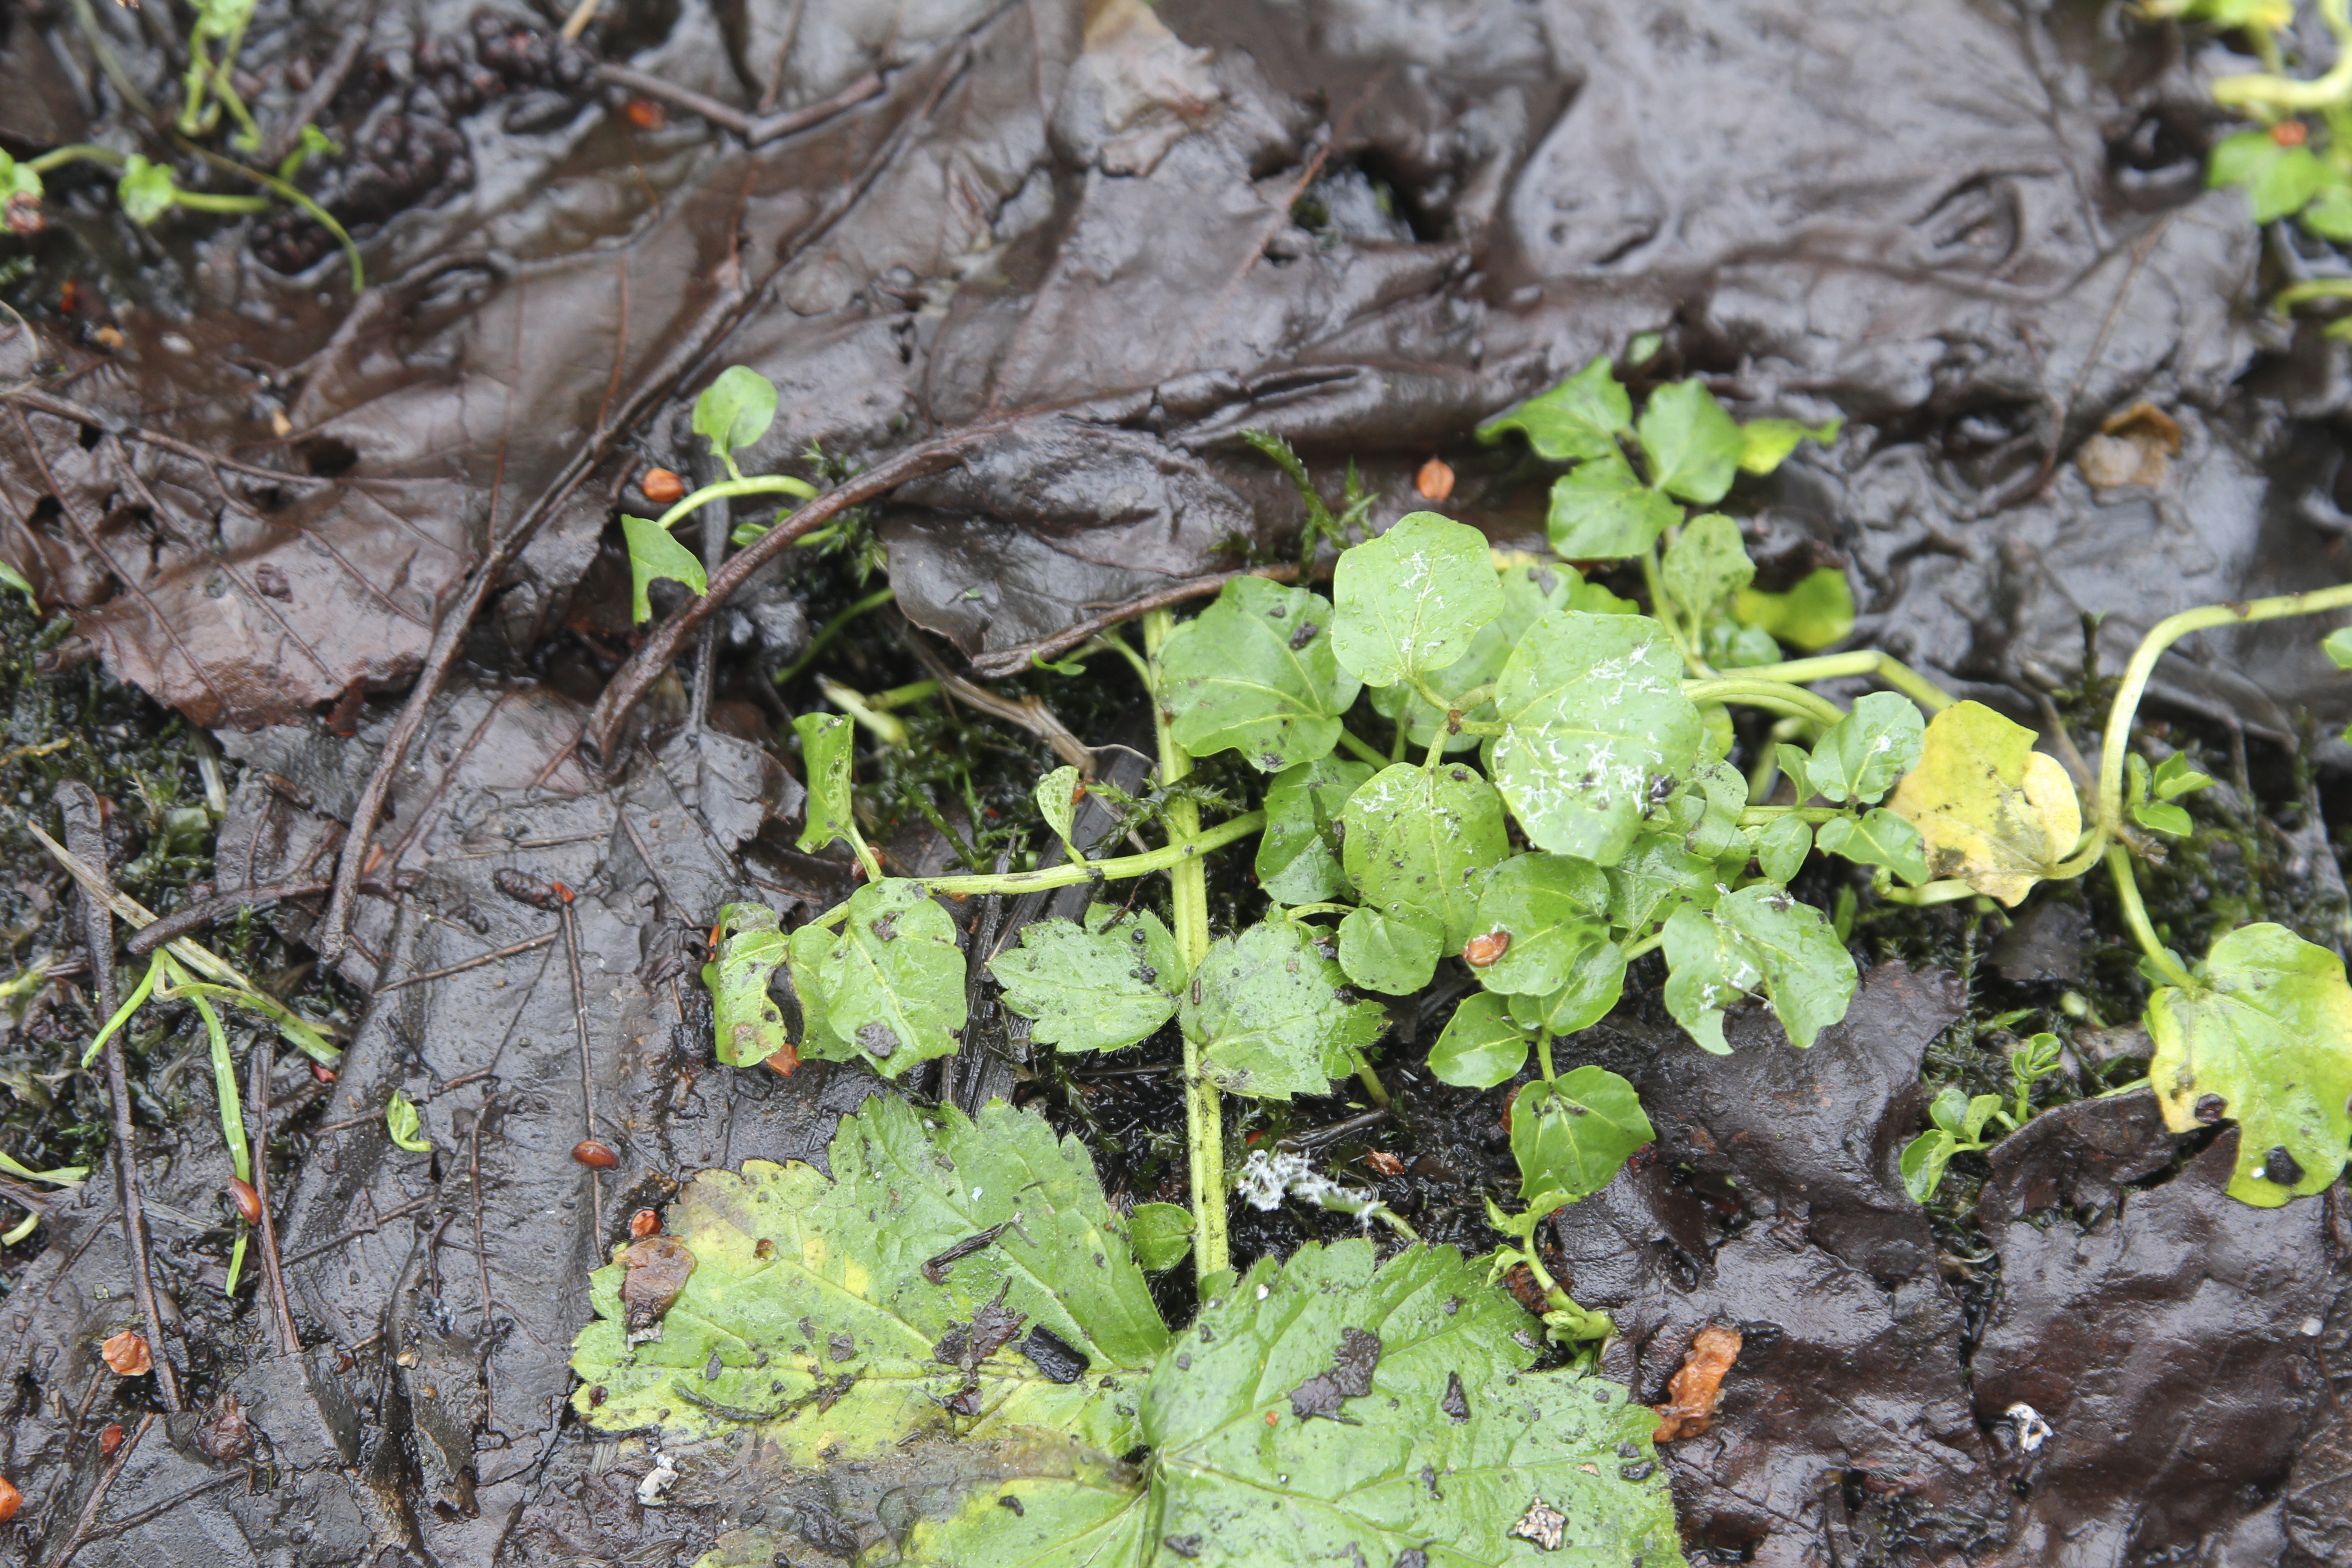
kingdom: Plantae
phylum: Tracheophyta
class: Magnoliopsida
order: Brassicales
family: Brassicaceae
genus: Cardamine
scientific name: Cardamine amara
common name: Large bitter-cress
